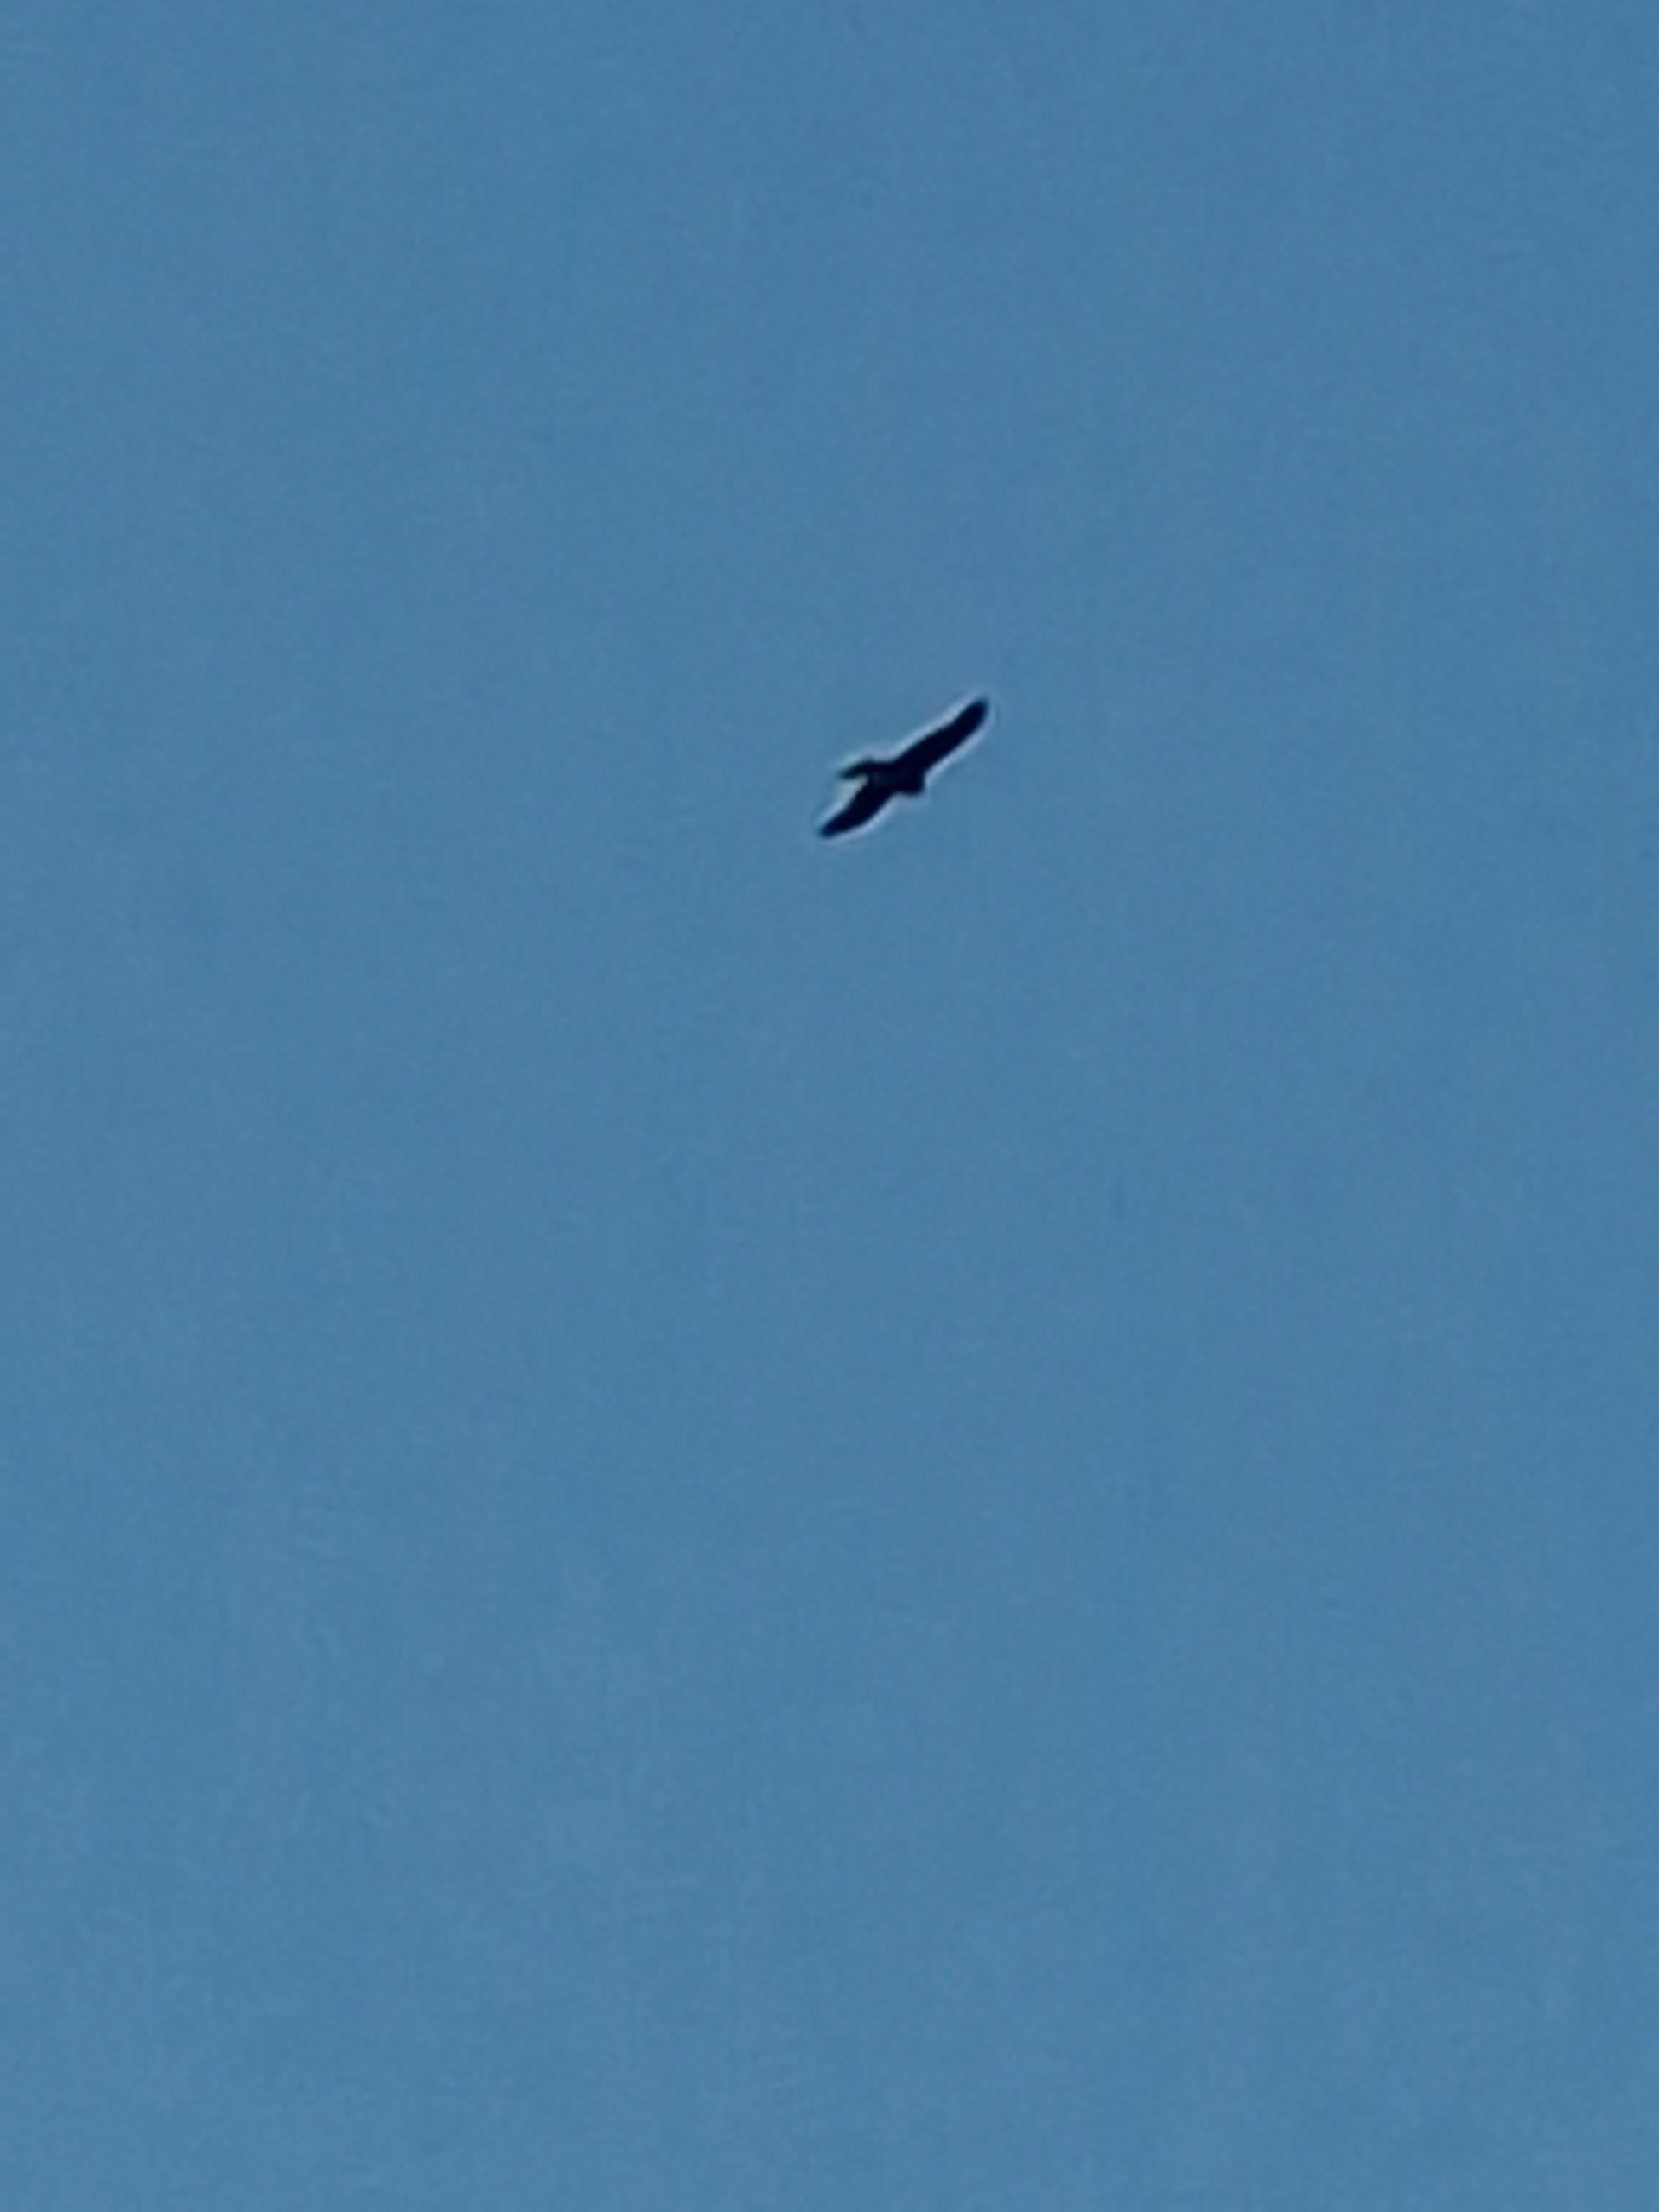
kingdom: Animalia
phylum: Chordata
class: Aves
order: Accipitriformes
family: Accipitridae
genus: Milvus
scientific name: Milvus milvus
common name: Rød glente
